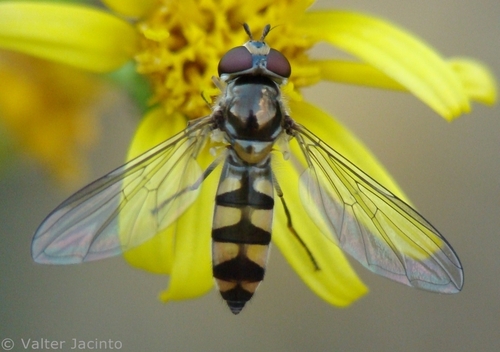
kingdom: Animalia
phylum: Arthropoda
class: Insecta
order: Diptera
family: Syrphidae
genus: Meliscaeva
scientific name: Meliscaeva auricollis
